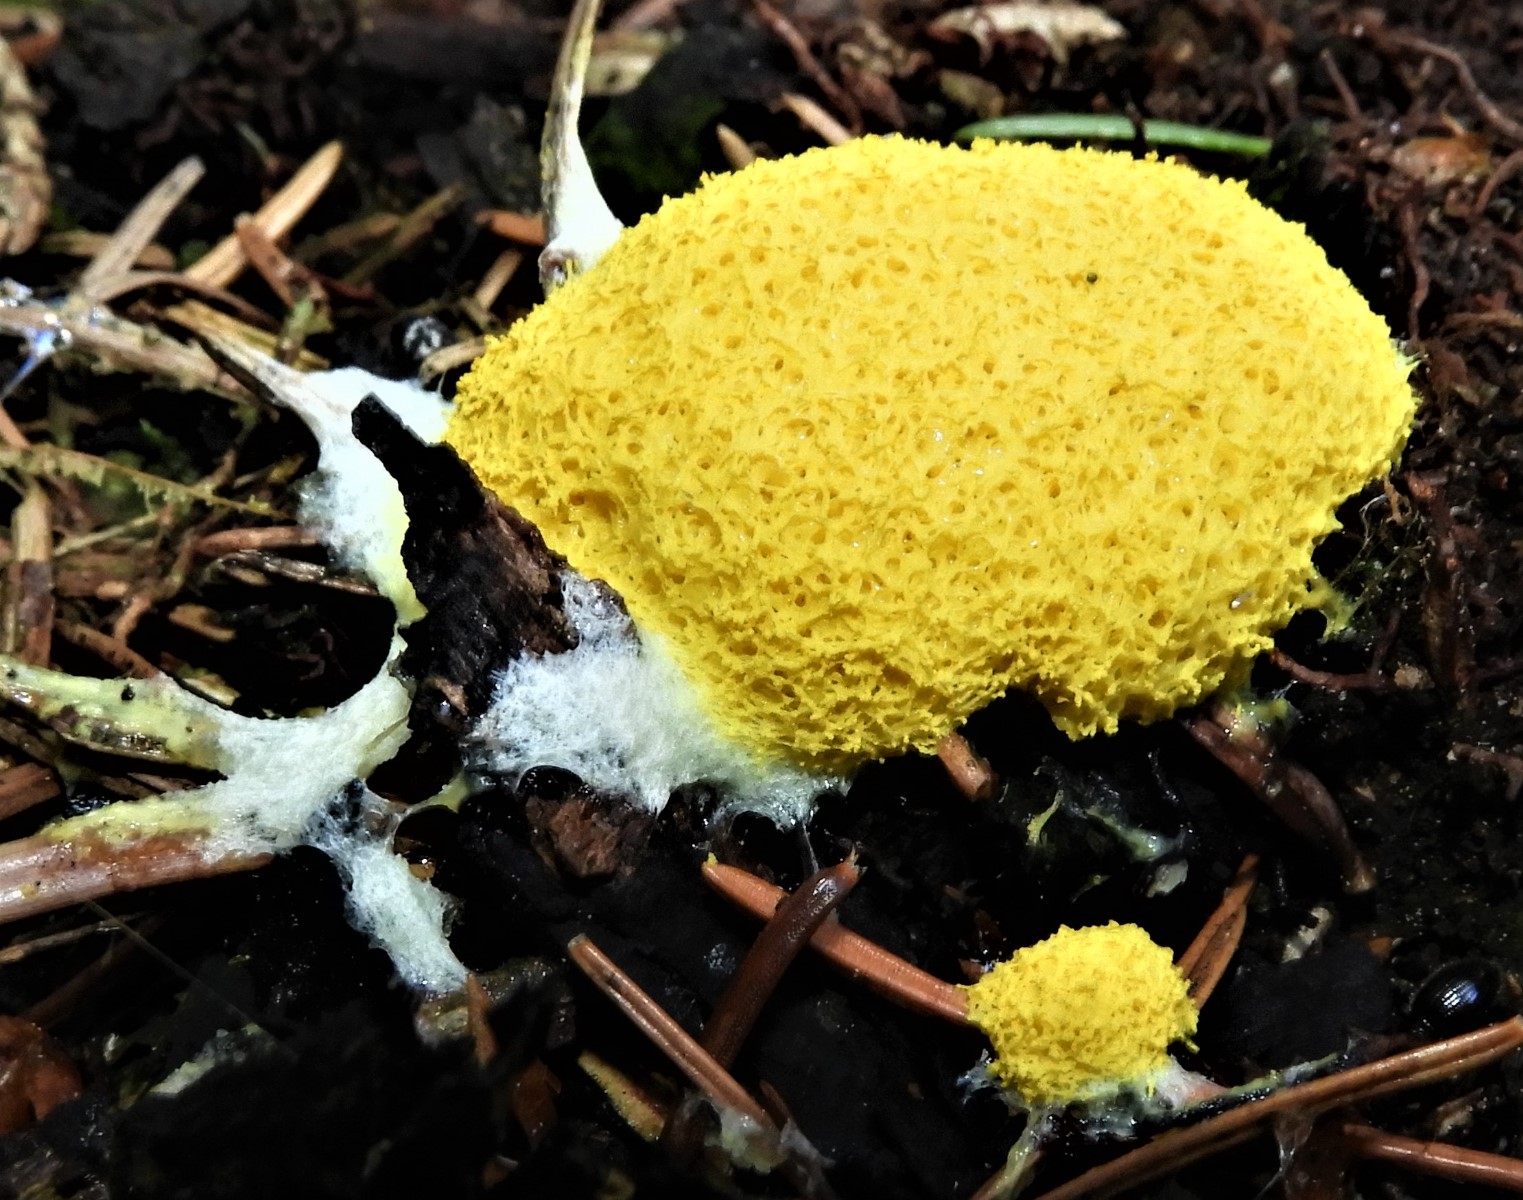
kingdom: Protozoa
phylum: Mycetozoa
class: Myxomycetes
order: Physarales
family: Physaraceae
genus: Fuligo
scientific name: Fuligo septica
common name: gul troldsmør
